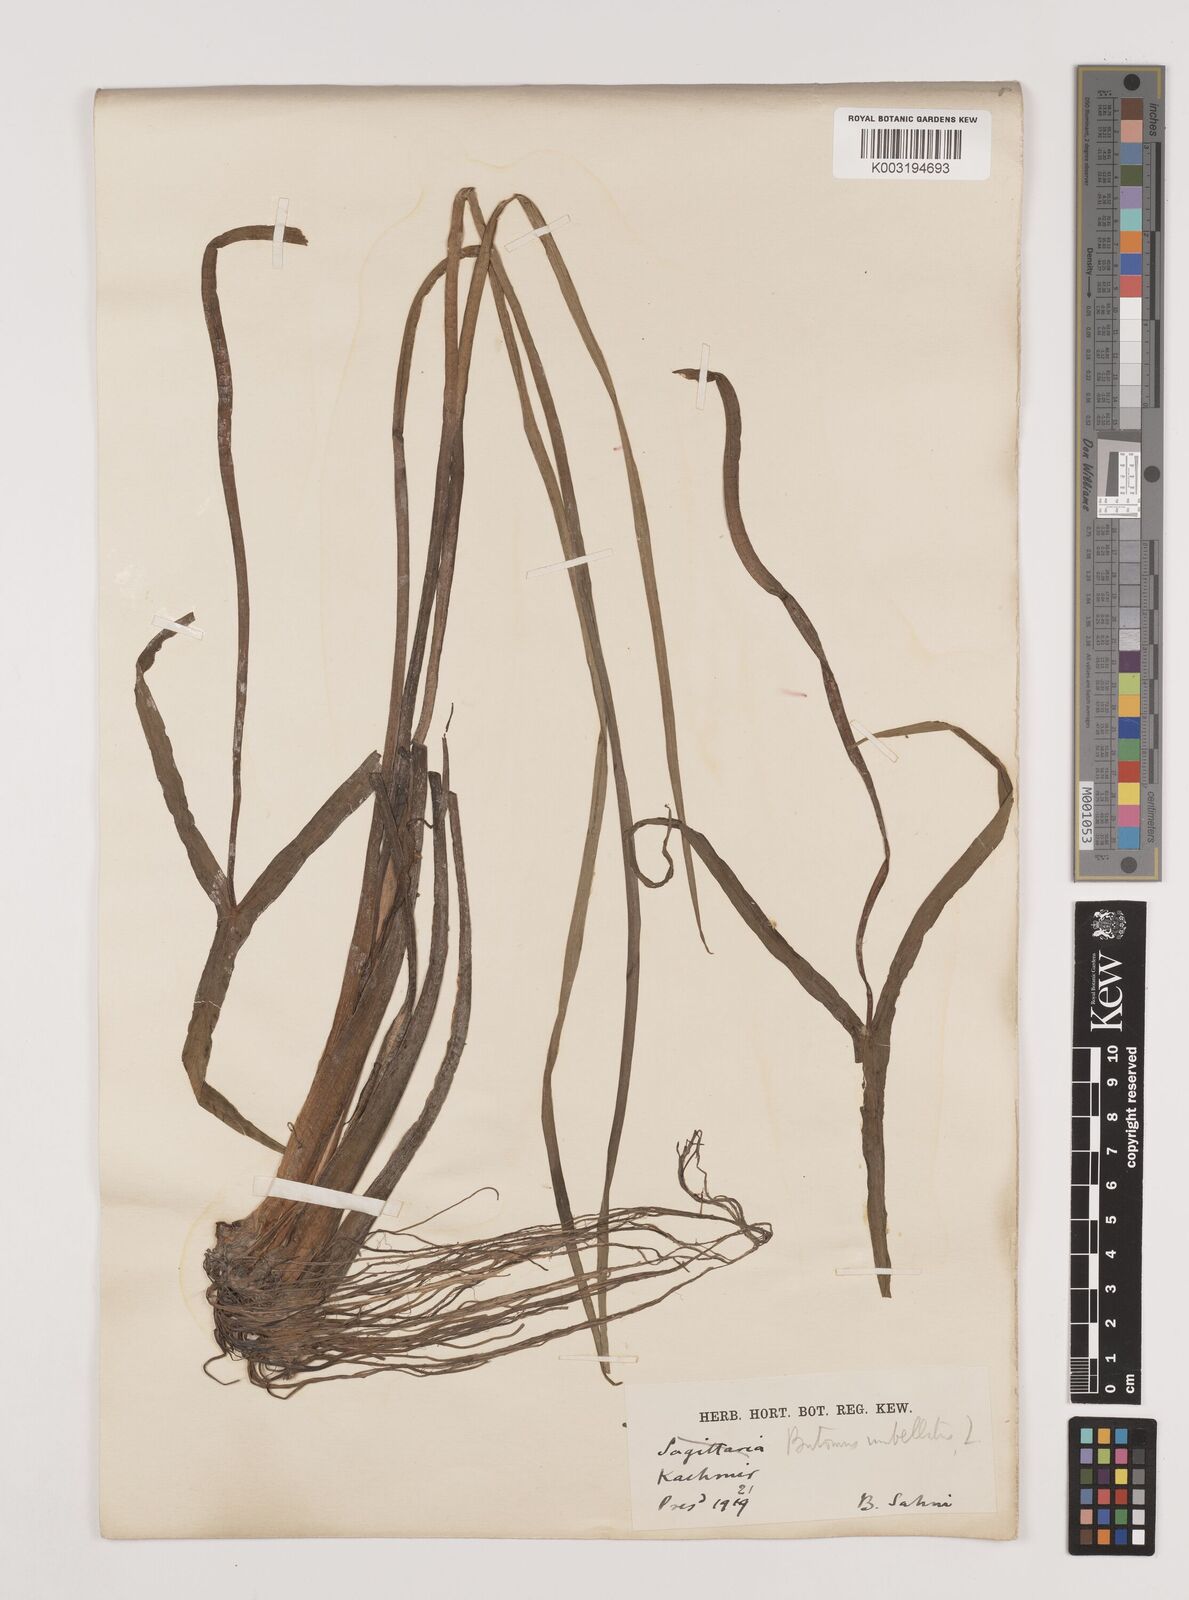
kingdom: Plantae
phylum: Tracheophyta
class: Liliopsida
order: Alismatales
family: Butomaceae
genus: Butomus
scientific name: Butomus umbellatus
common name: Flowering-rush
